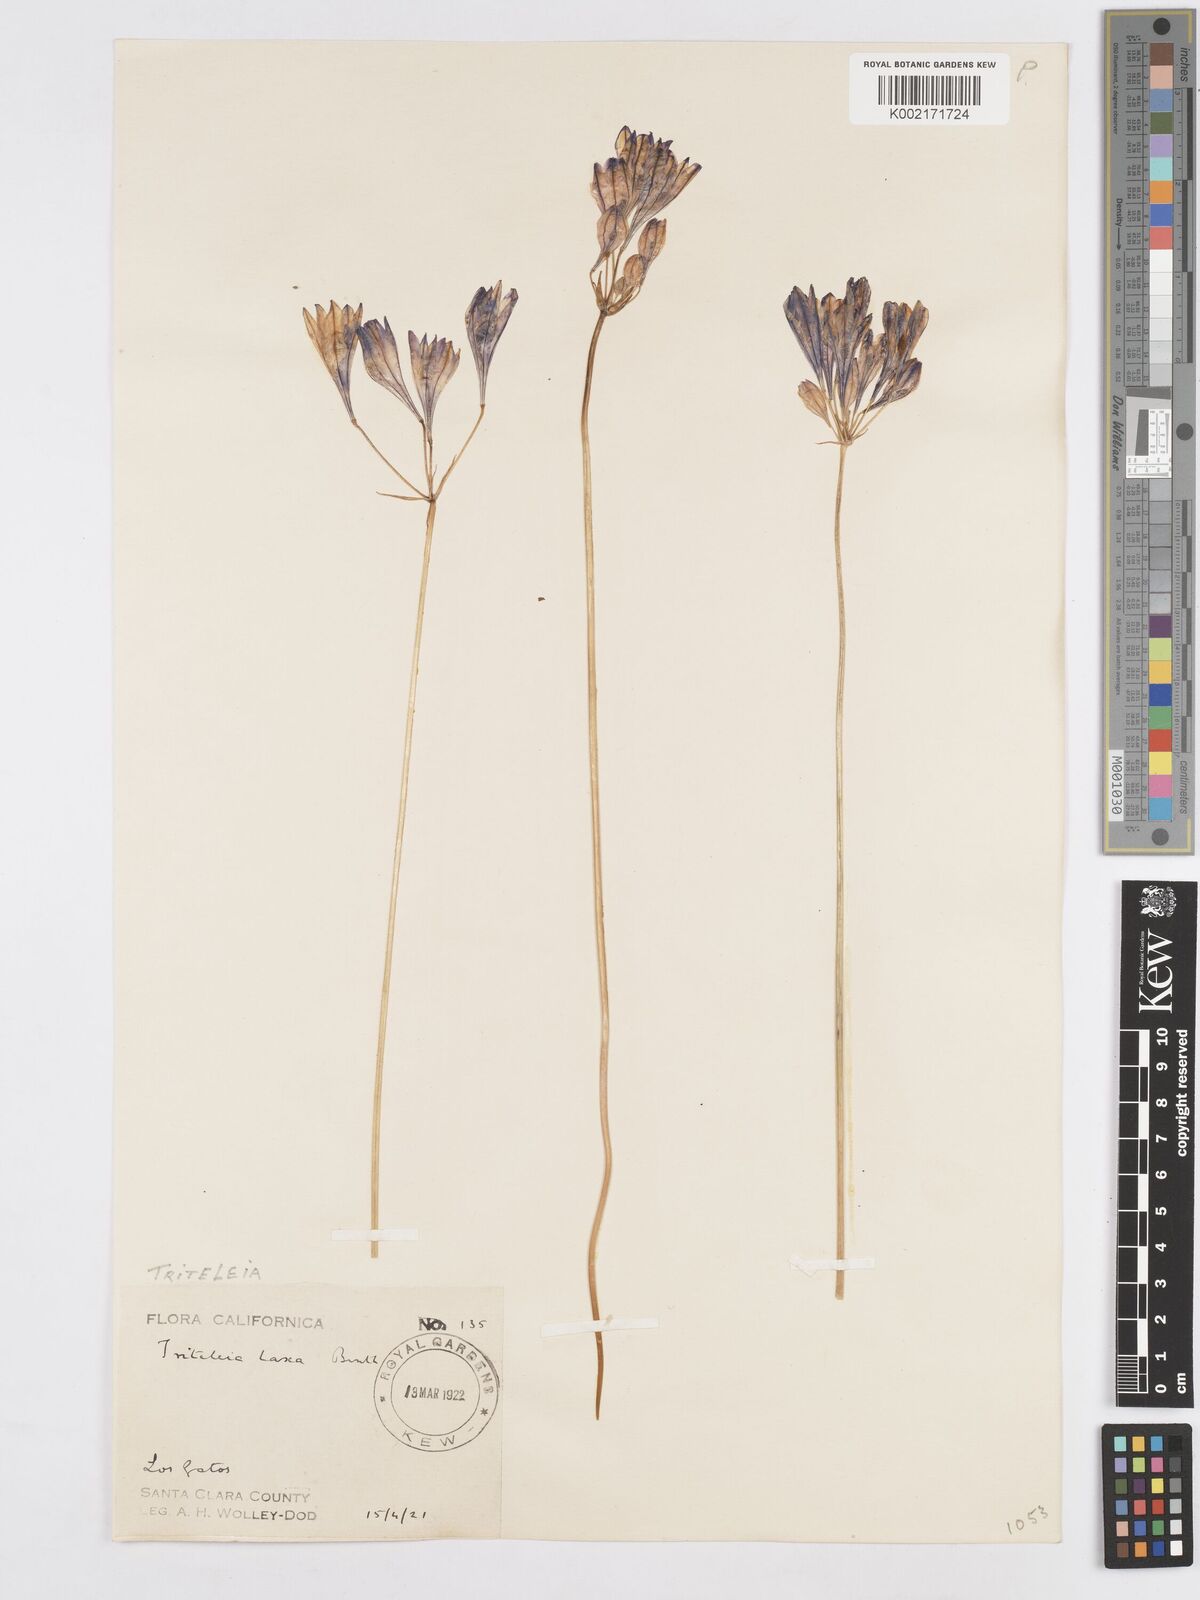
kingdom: Plantae
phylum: Tracheophyta
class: Liliopsida
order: Asparagales
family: Asparagaceae
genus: Triteleia
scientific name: Triteleia laxa
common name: Triplet-lily
